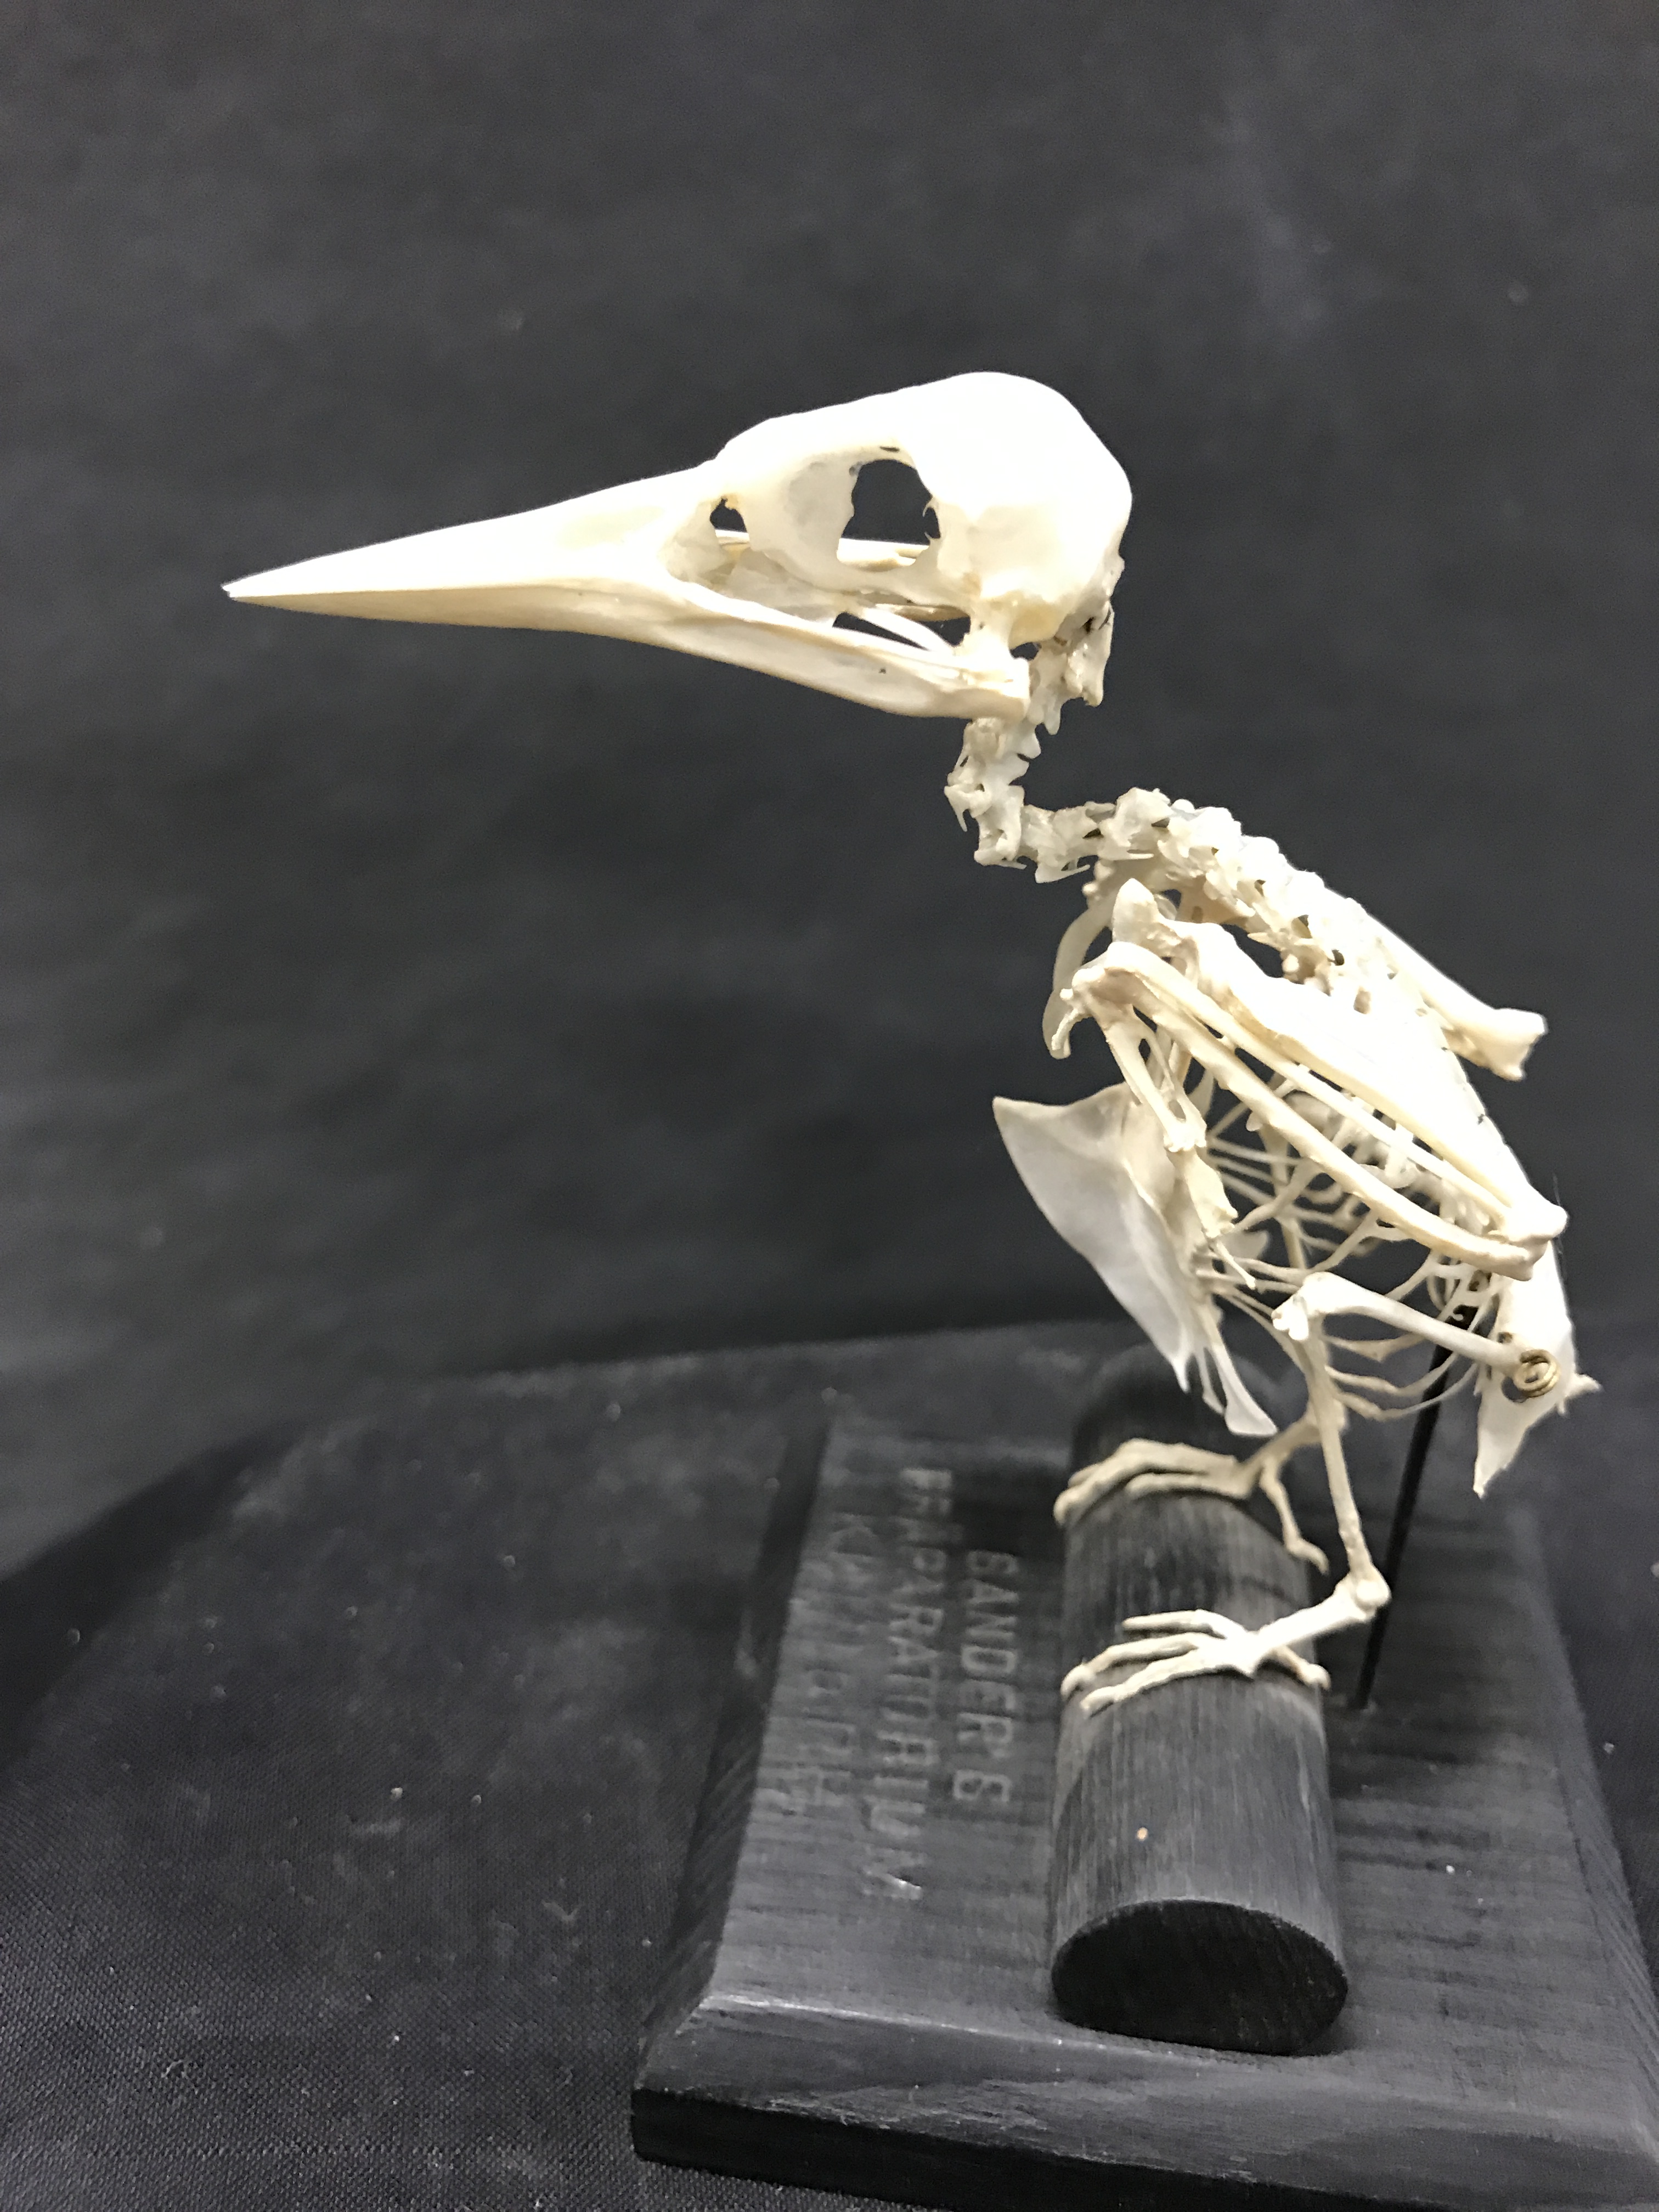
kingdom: Animalia
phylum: Chordata
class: Aves
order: Coraciiformes
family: Alcedinidae
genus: Alcedo
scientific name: Alcedo atthis
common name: Common kingfisher
